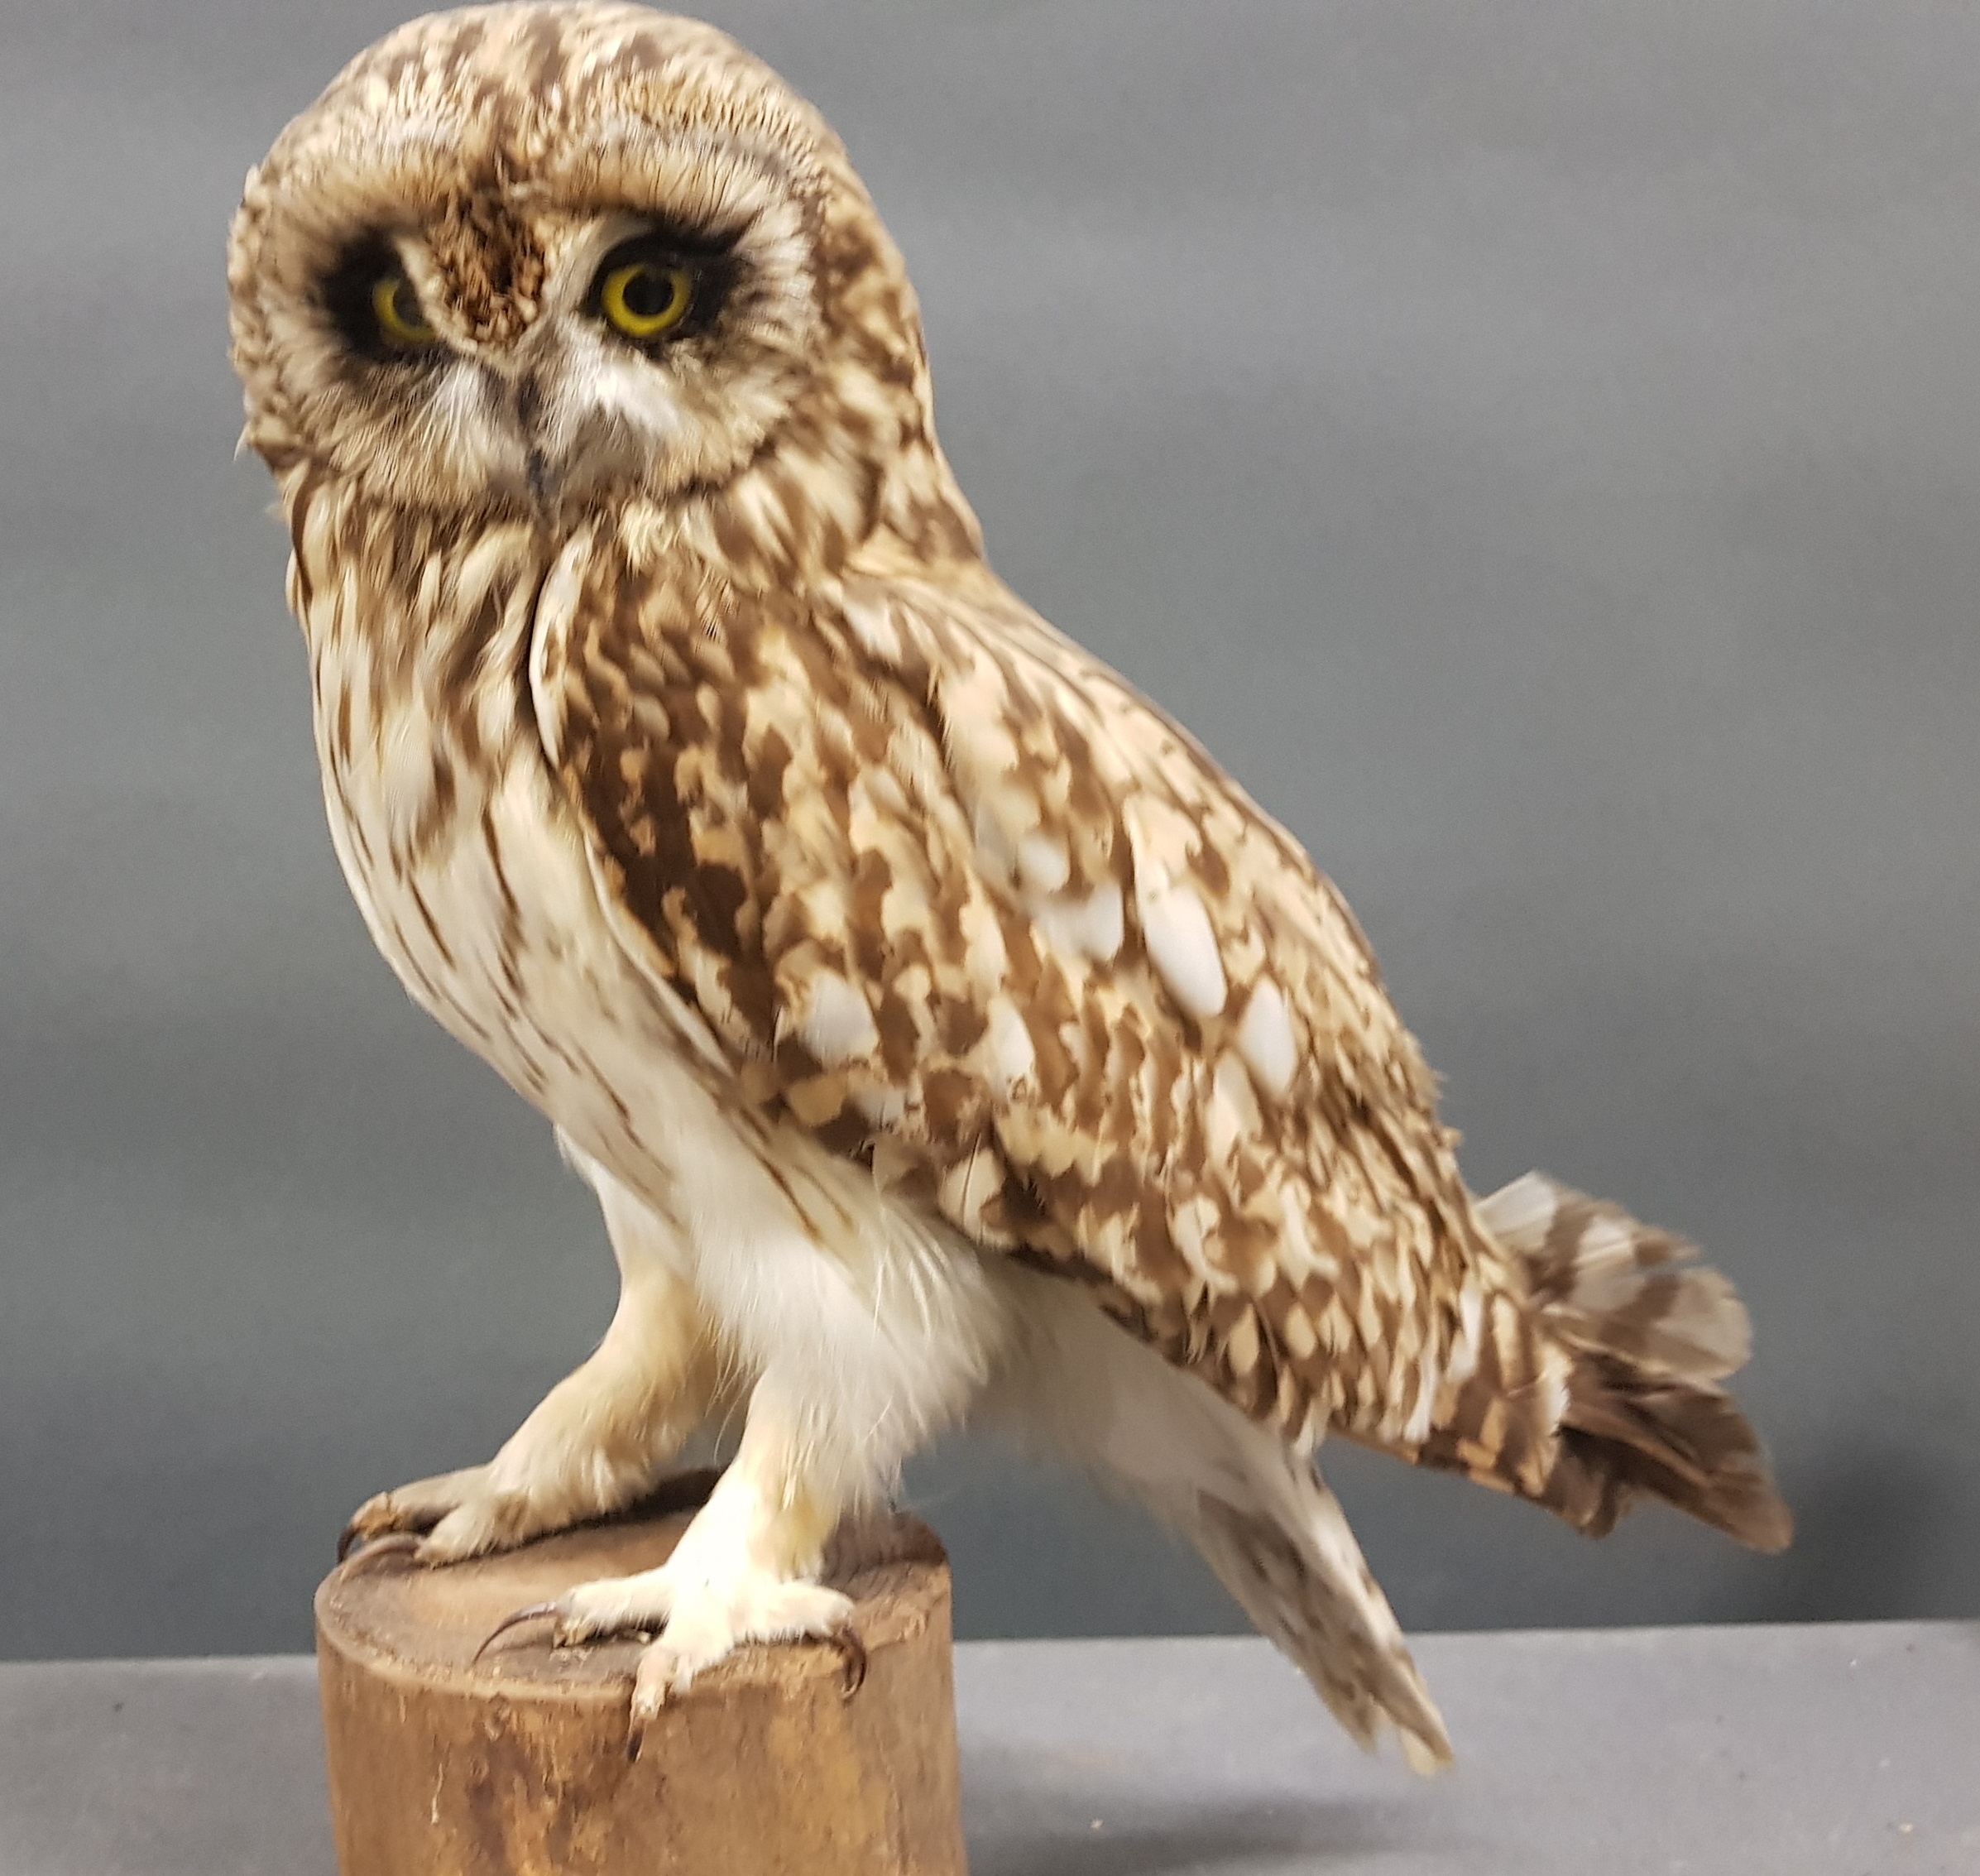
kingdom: Animalia
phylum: Chordata
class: Aves
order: Strigiformes
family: Strigidae
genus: Asio
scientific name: Asio flammeus
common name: Short-eared owl
